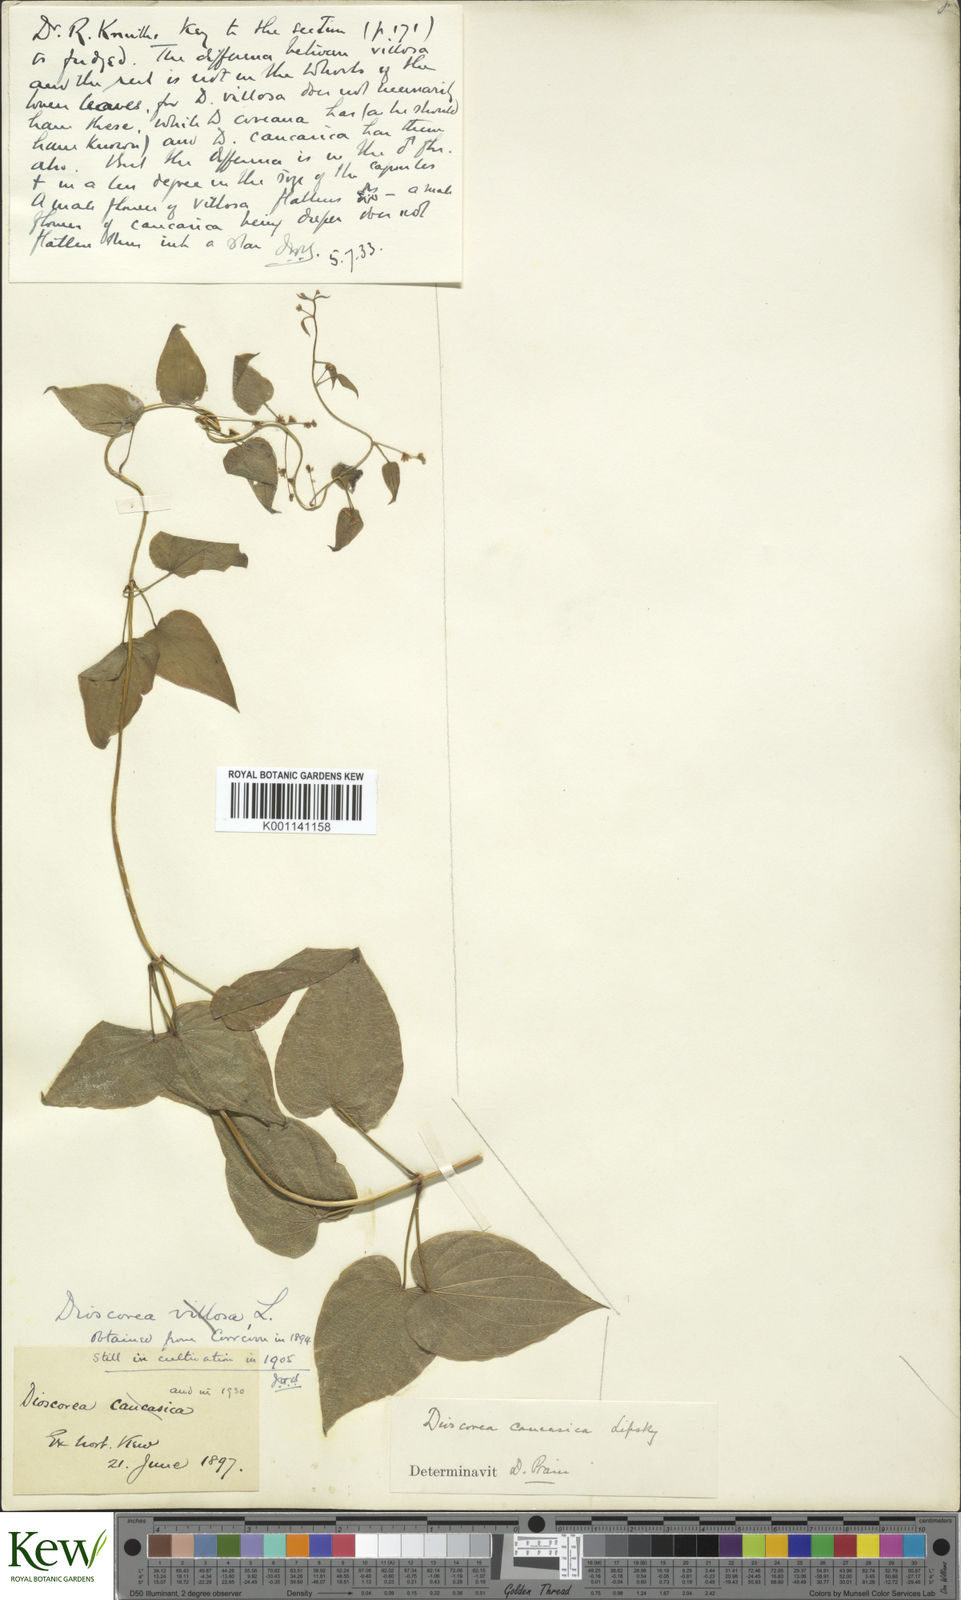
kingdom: Plantae
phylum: Tracheophyta
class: Liliopsida
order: Dioscoreales
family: Dioscoreaceae
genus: Dioscorea
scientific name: Dioscorea caucasica
